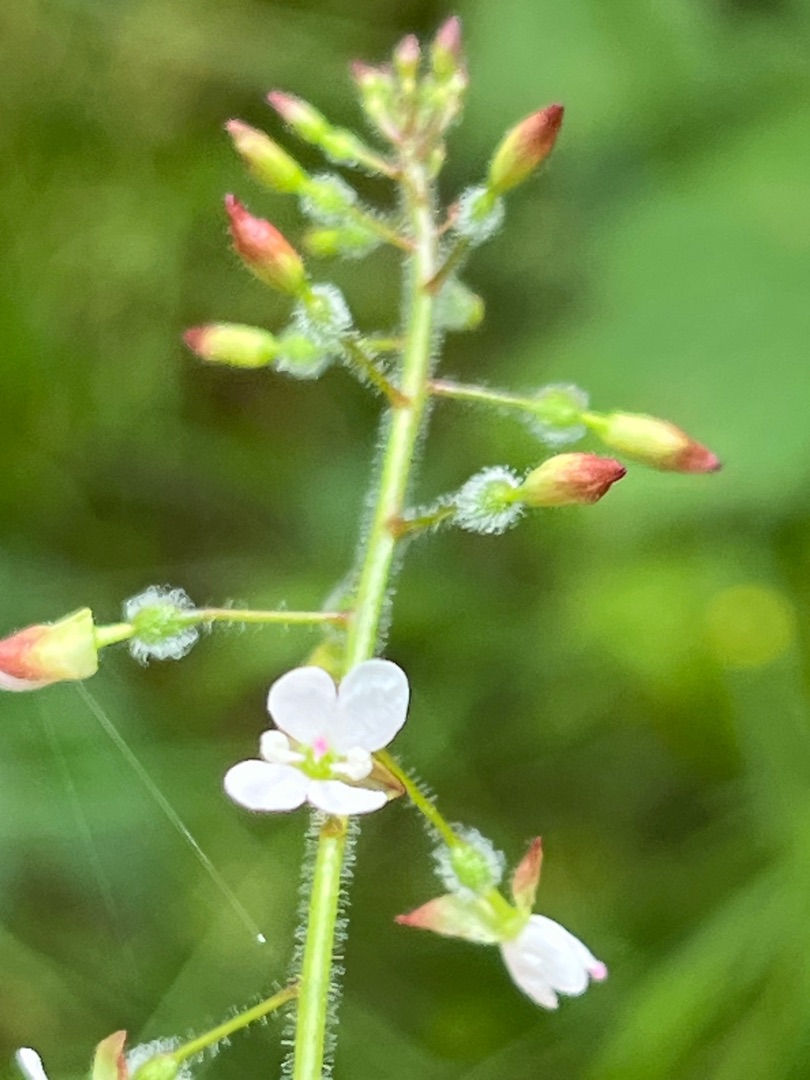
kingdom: Plantae
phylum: Tracheophyta
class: Magnoliopsida
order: Myrtales
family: Onagraceae
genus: Circaea
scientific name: Circaea lutetiana
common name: Dunet steffensurt
